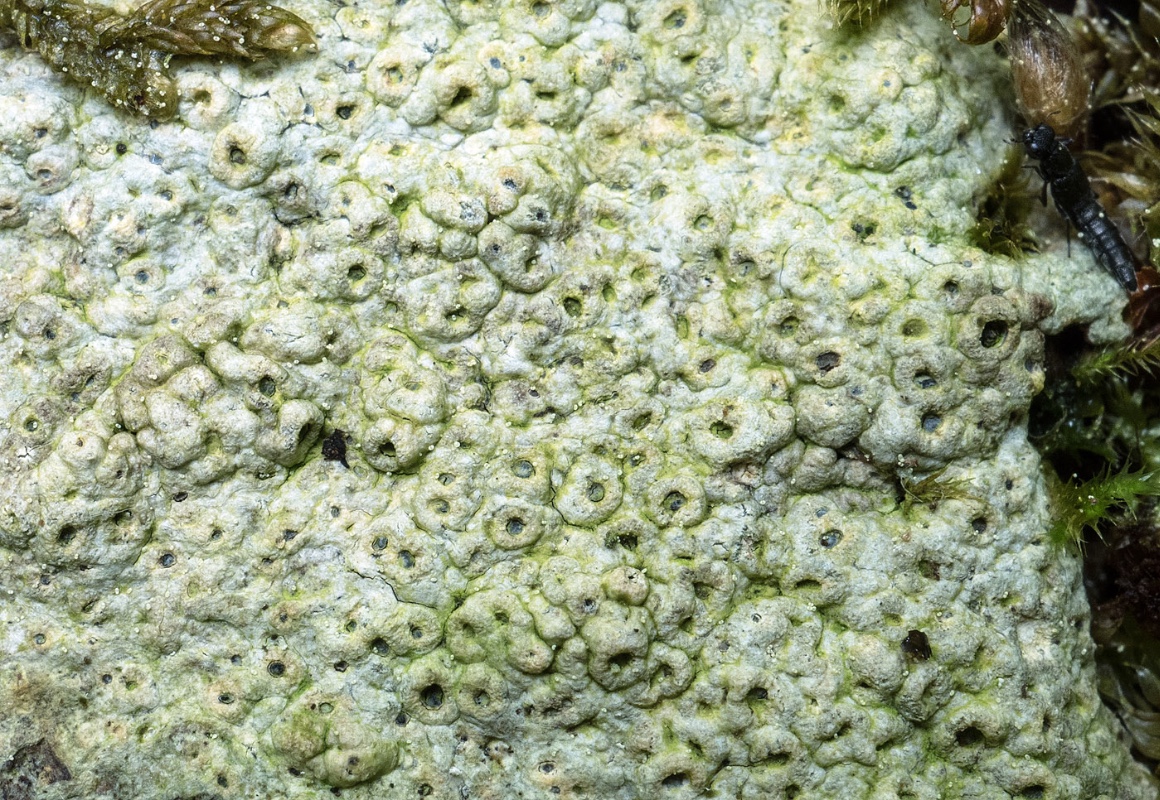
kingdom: Fungi
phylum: Ascomycota
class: Lecanoromycetes
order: Ostropales
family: Graphidaceae
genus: Thelotrema
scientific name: Thelotrema lepadinum
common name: almindelig slørkantlav
